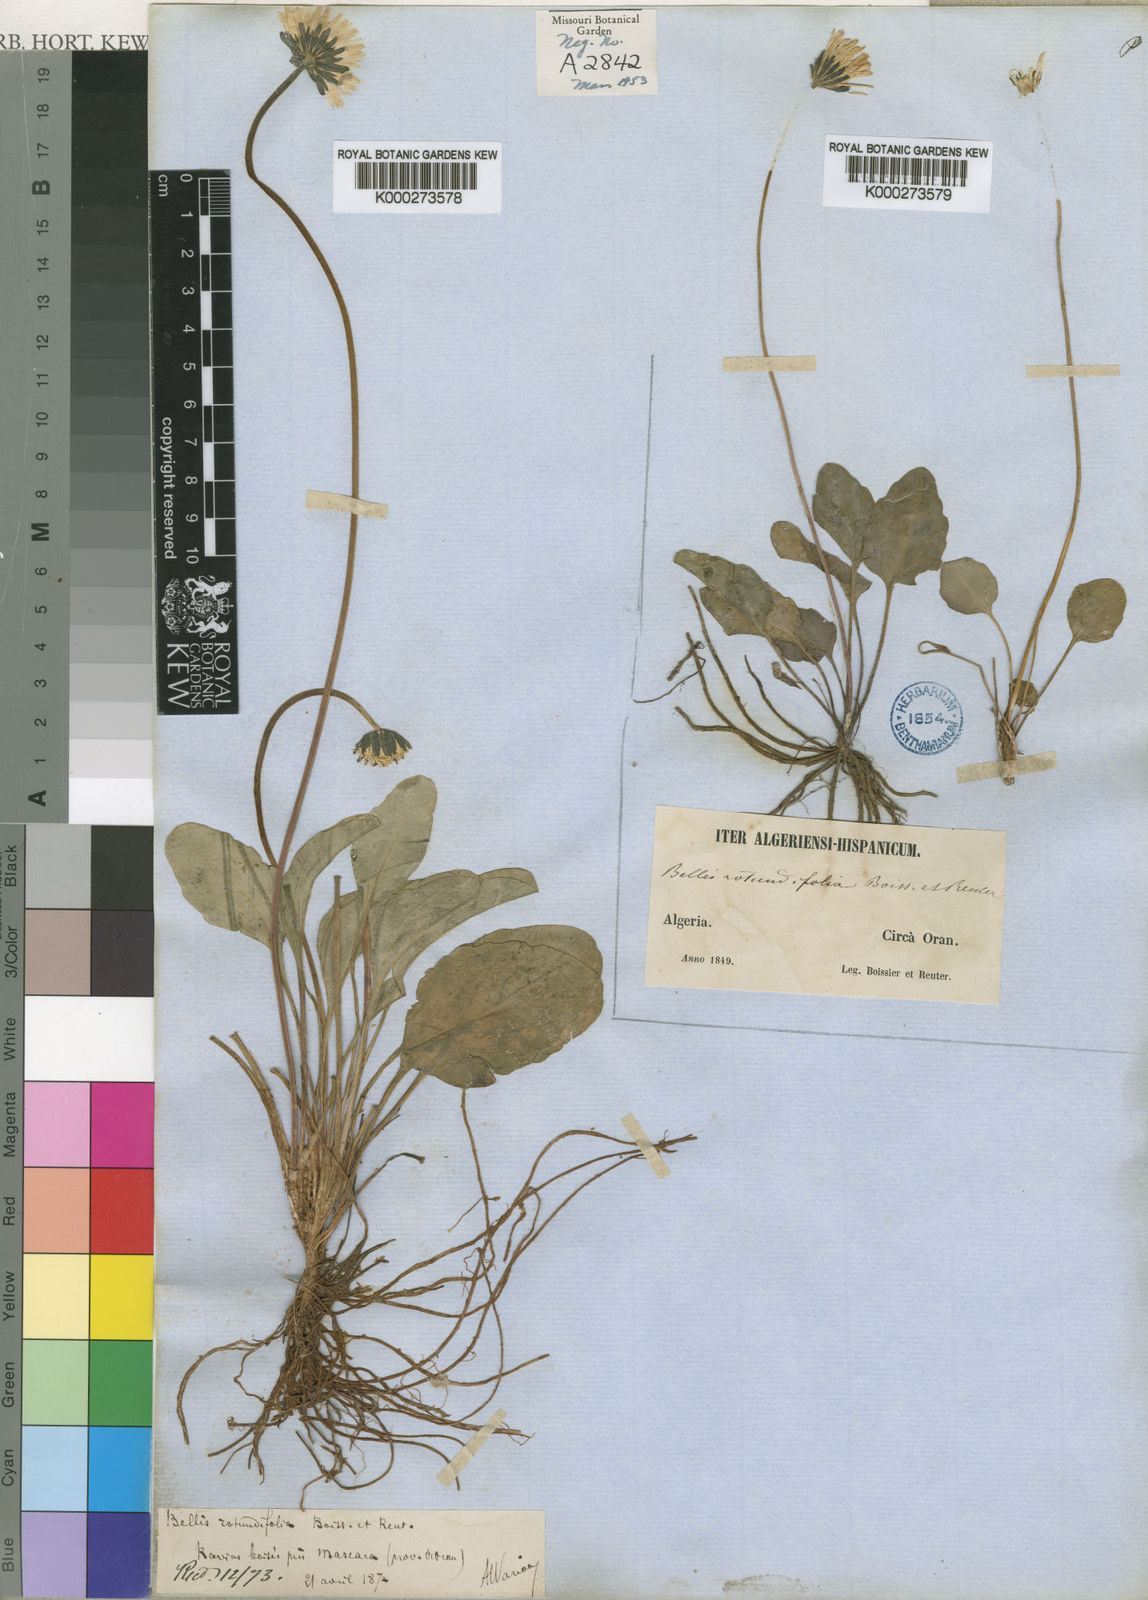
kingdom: Plantae
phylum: Tracheophyta
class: Magnoliopsida
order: Asterales
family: Asteraceae
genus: Bellis
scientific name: Bellis rotundifolia
